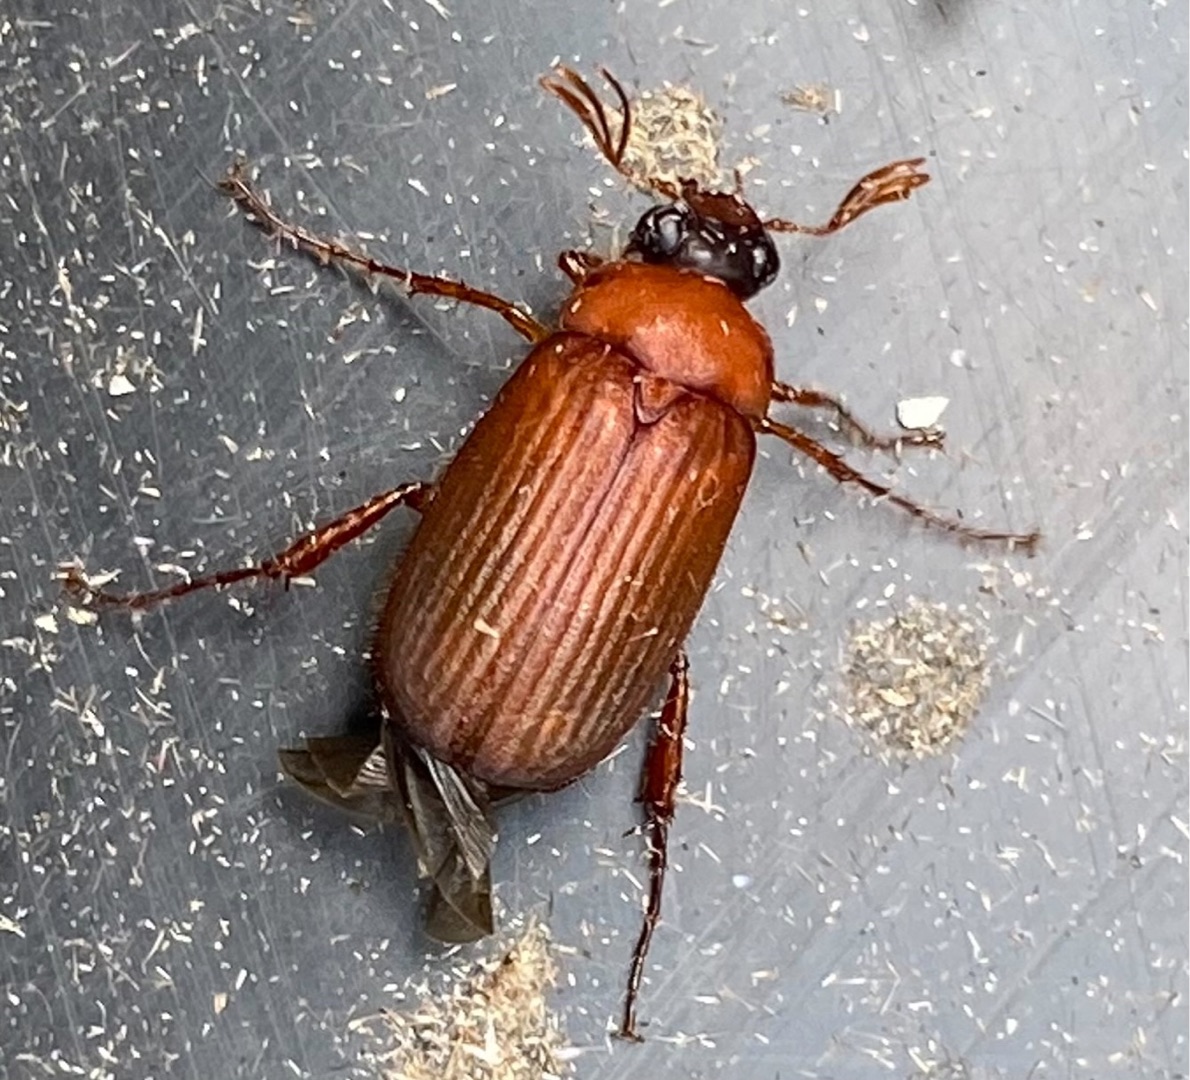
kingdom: Animalia
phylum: Arthropoda
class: Insecta
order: Coleoptera
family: Scarabaeidae
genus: Serica
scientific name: Serica brunnea
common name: Natoldenborre
